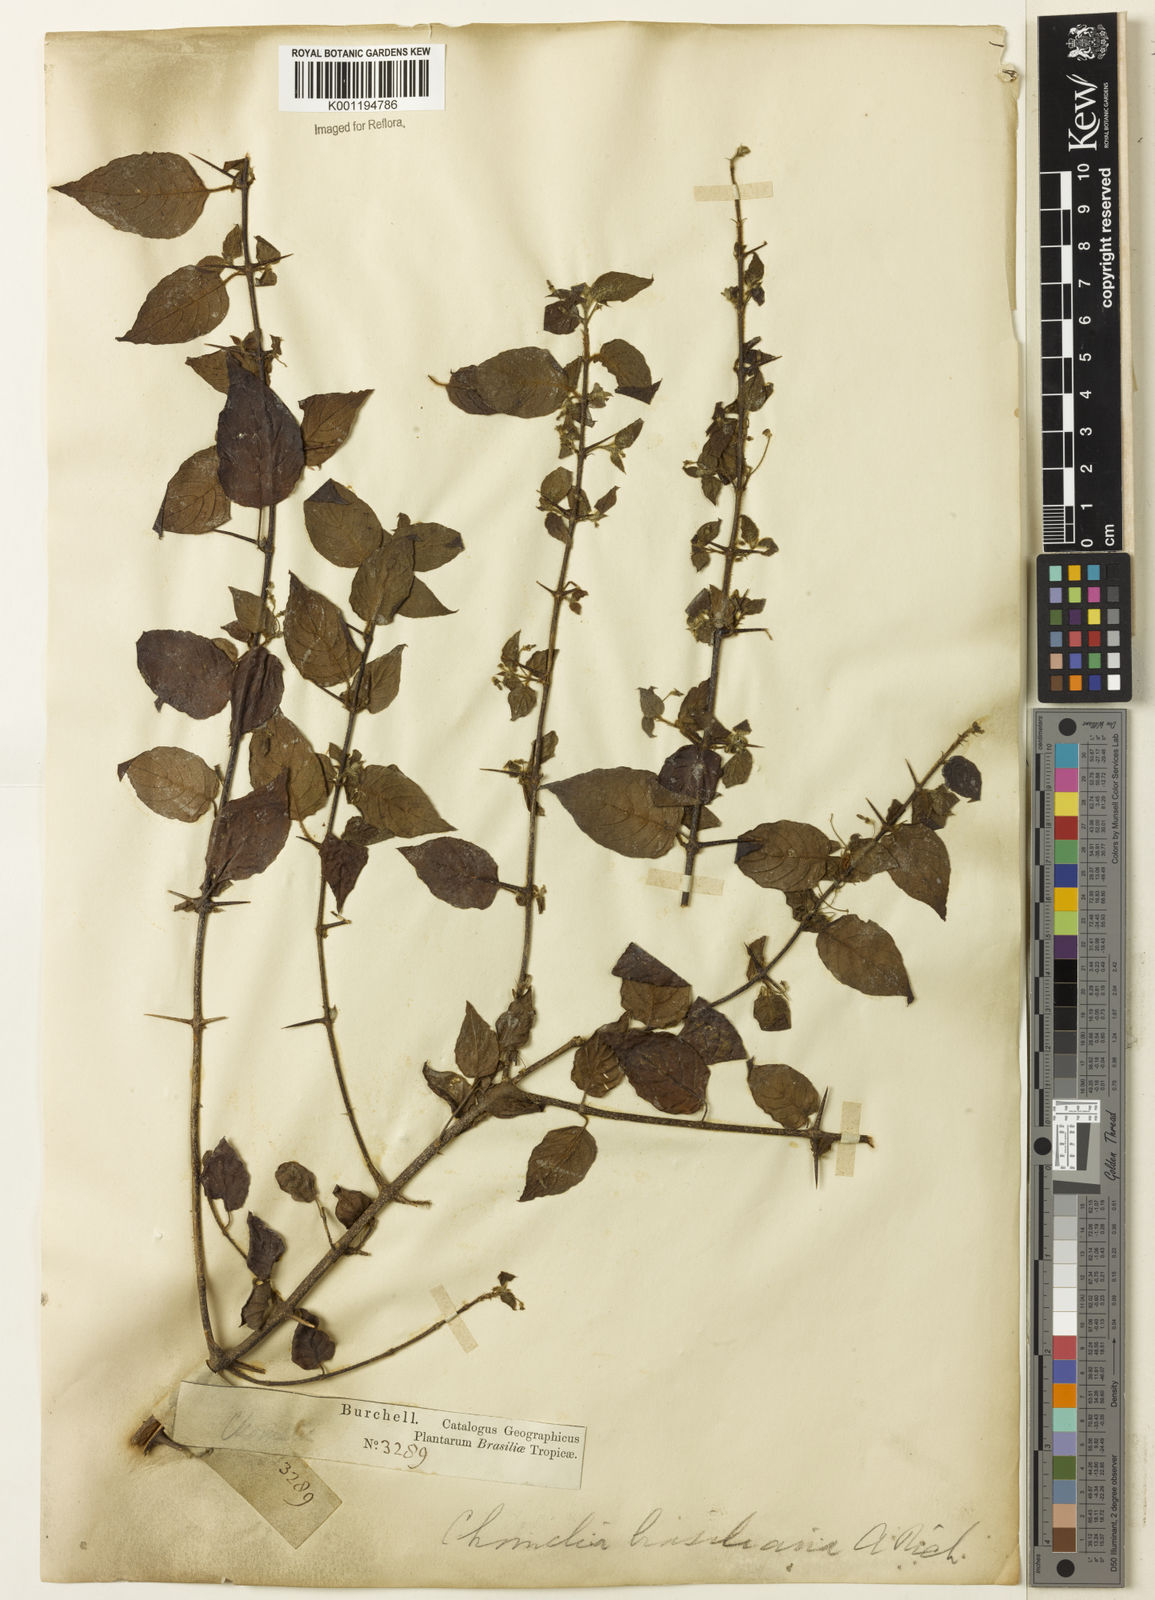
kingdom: Plantae
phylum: Tracheophyta
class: Magnoliopsida
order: Gentianales
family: Rubiaceae
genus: Chomelia
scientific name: Chomelia brasiliana
